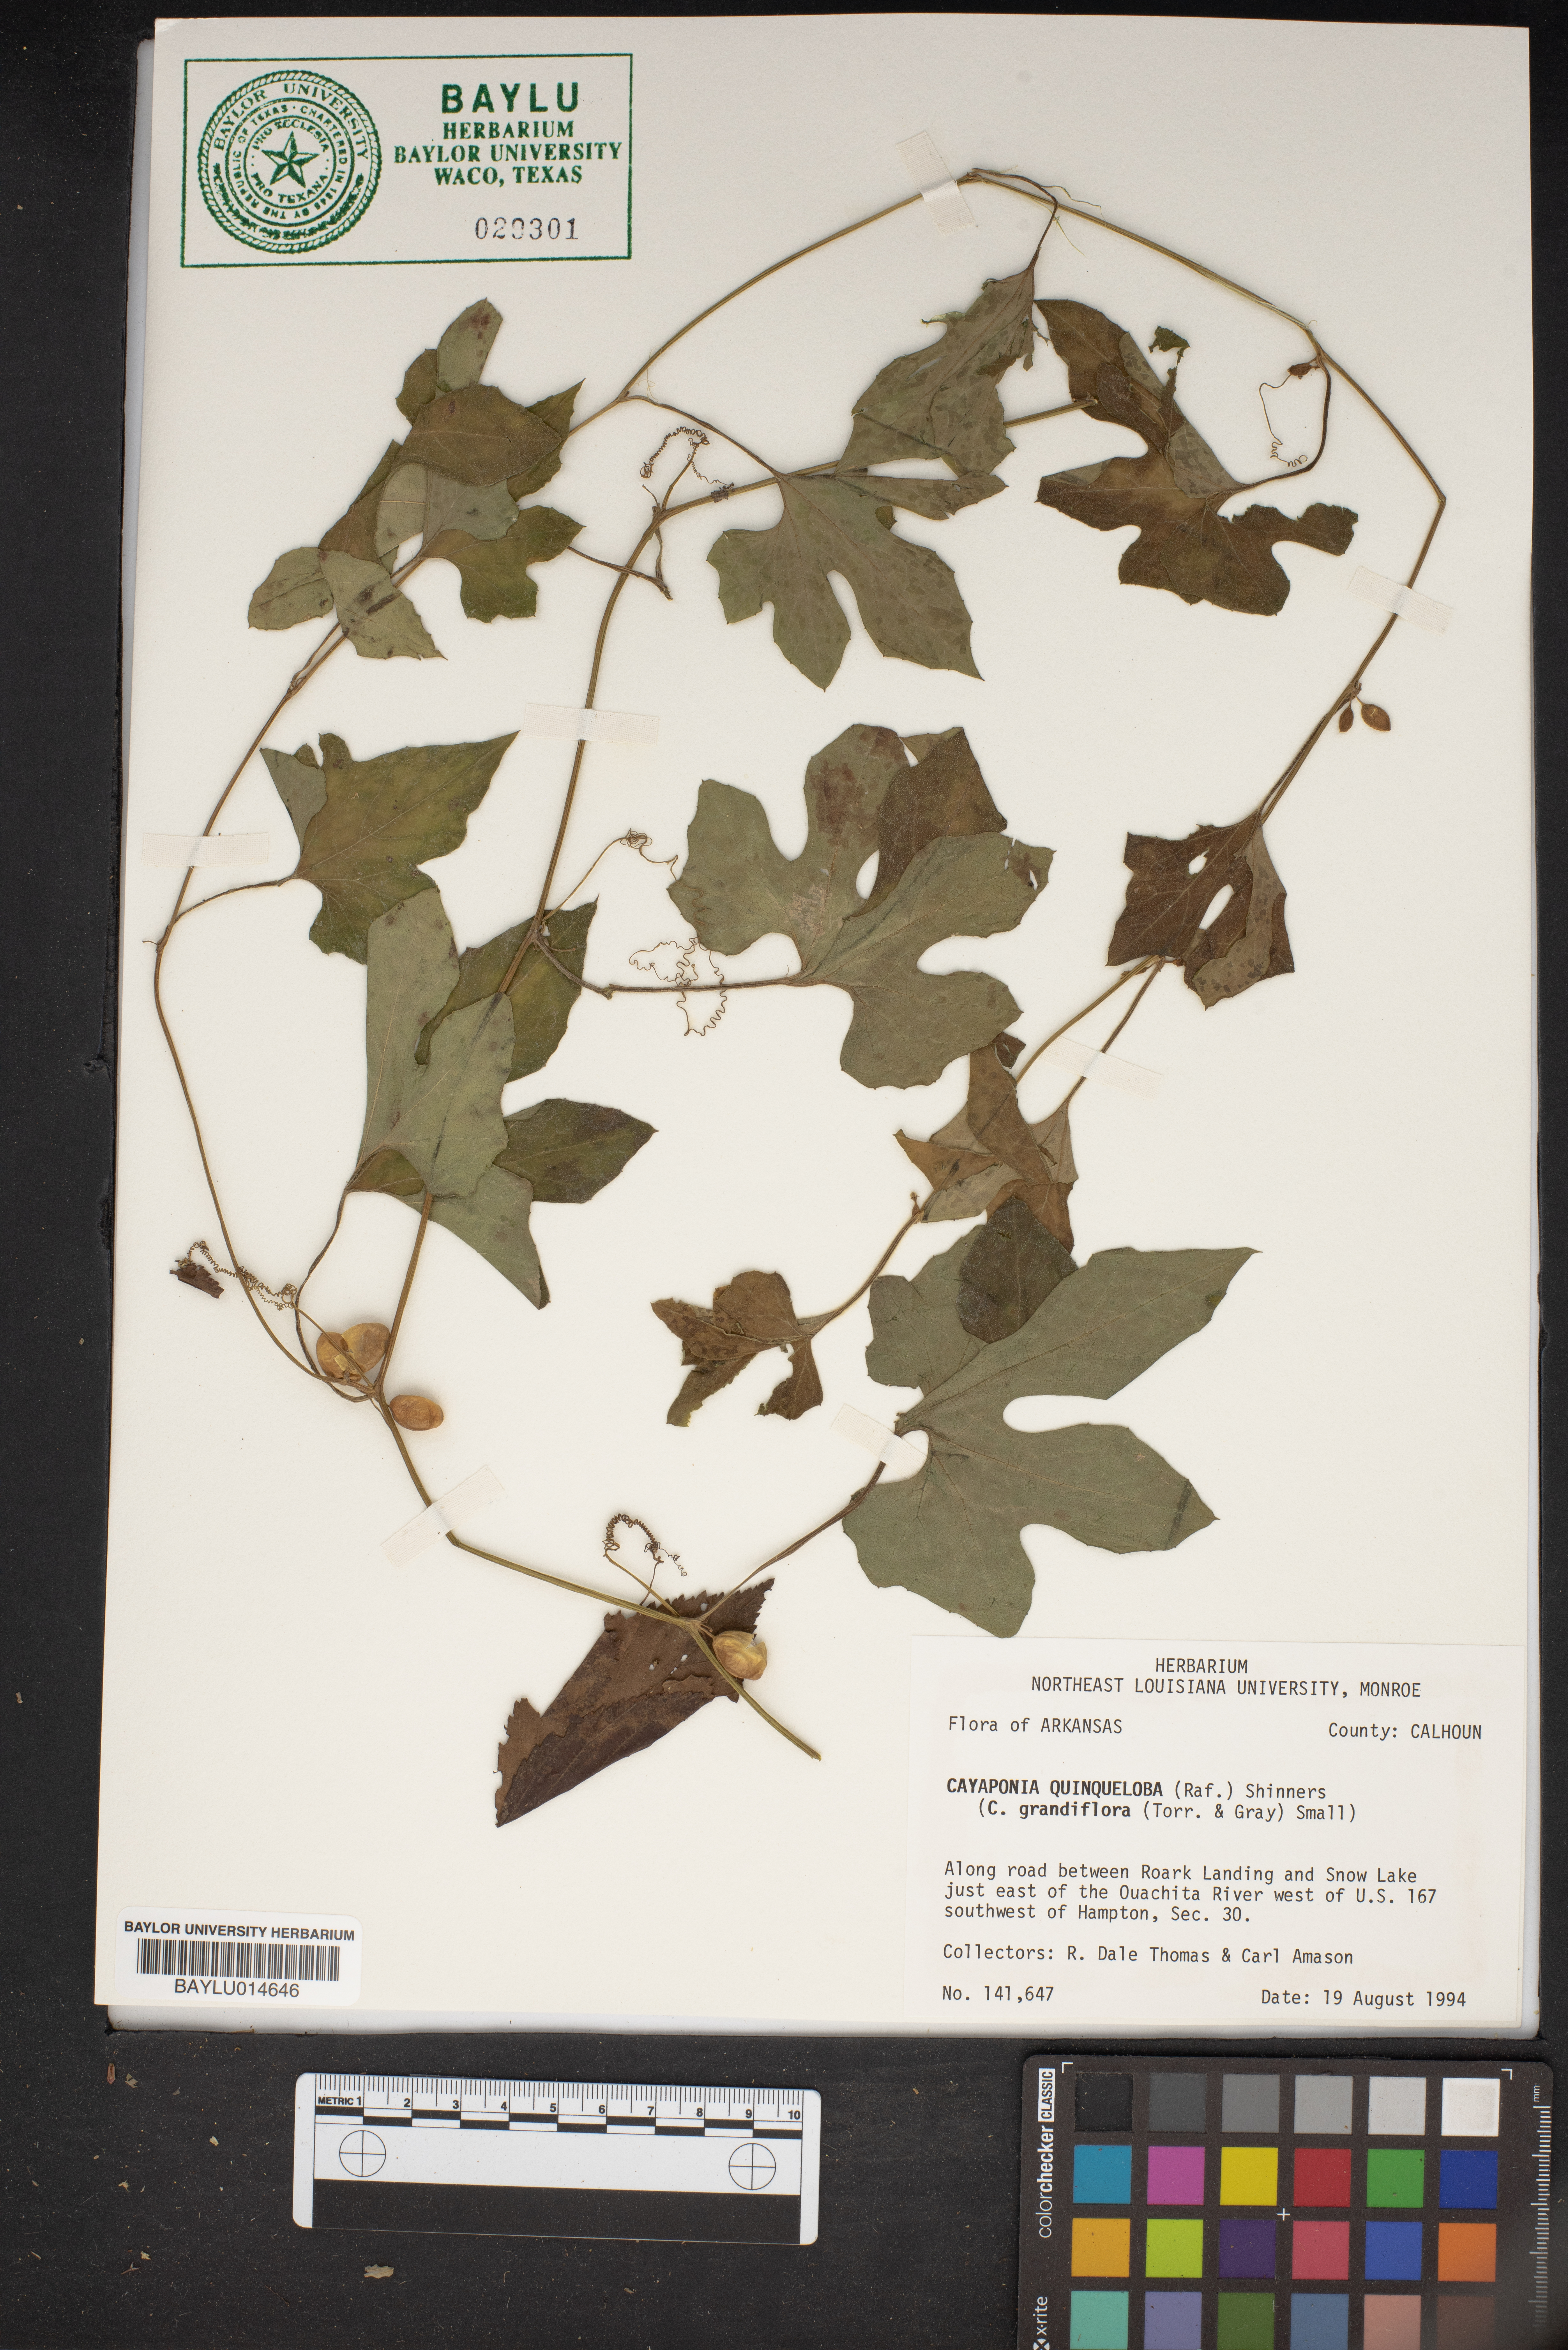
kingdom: Plantae
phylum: Tracheophyta
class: Magnoliopsida
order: Cucurbitales
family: Cucurbitaceae
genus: Cayaponia
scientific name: Cayaponia quinqueloba
